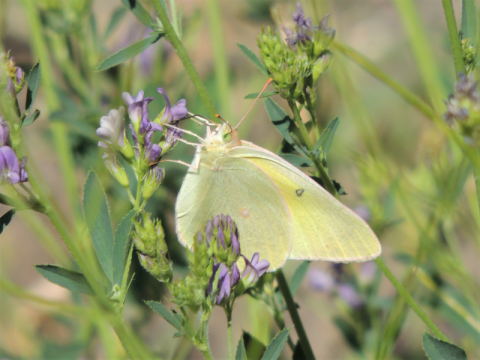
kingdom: Animalia
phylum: Arthropoda
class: Insecta
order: Lepidoptera
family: Pieridae
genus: Colias
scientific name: Colias alexandra
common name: Queen Alexandra's Sulphur
